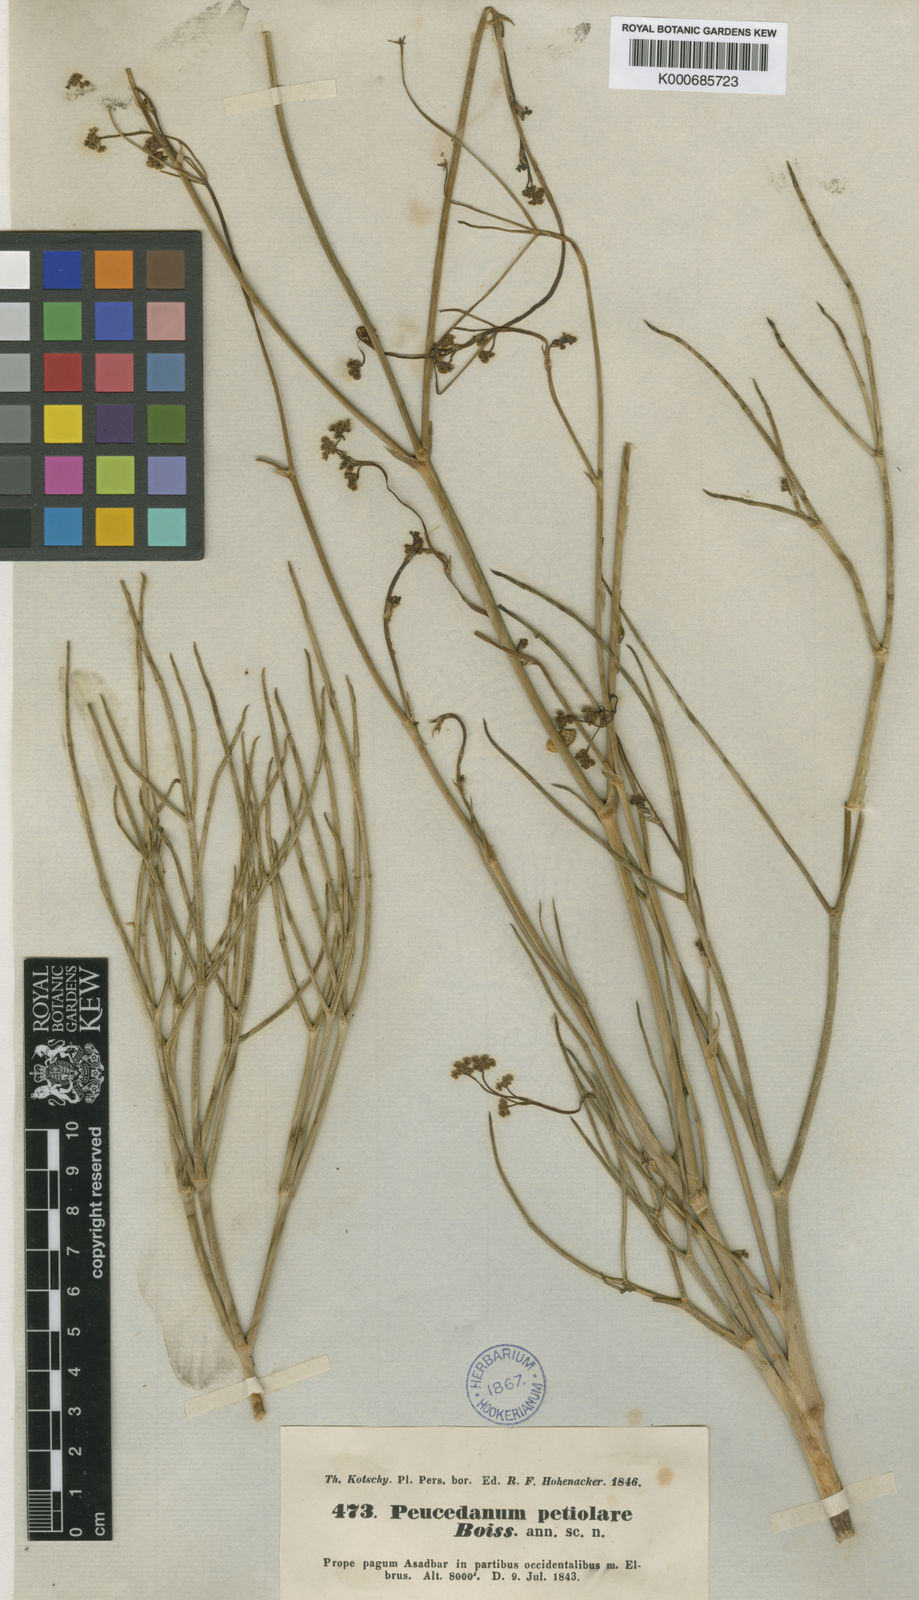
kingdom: Plantae
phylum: Tracheophyta
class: Magnoliopsida
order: Apiales
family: Apiaceae
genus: Peucedanum
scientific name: Peucedanum
